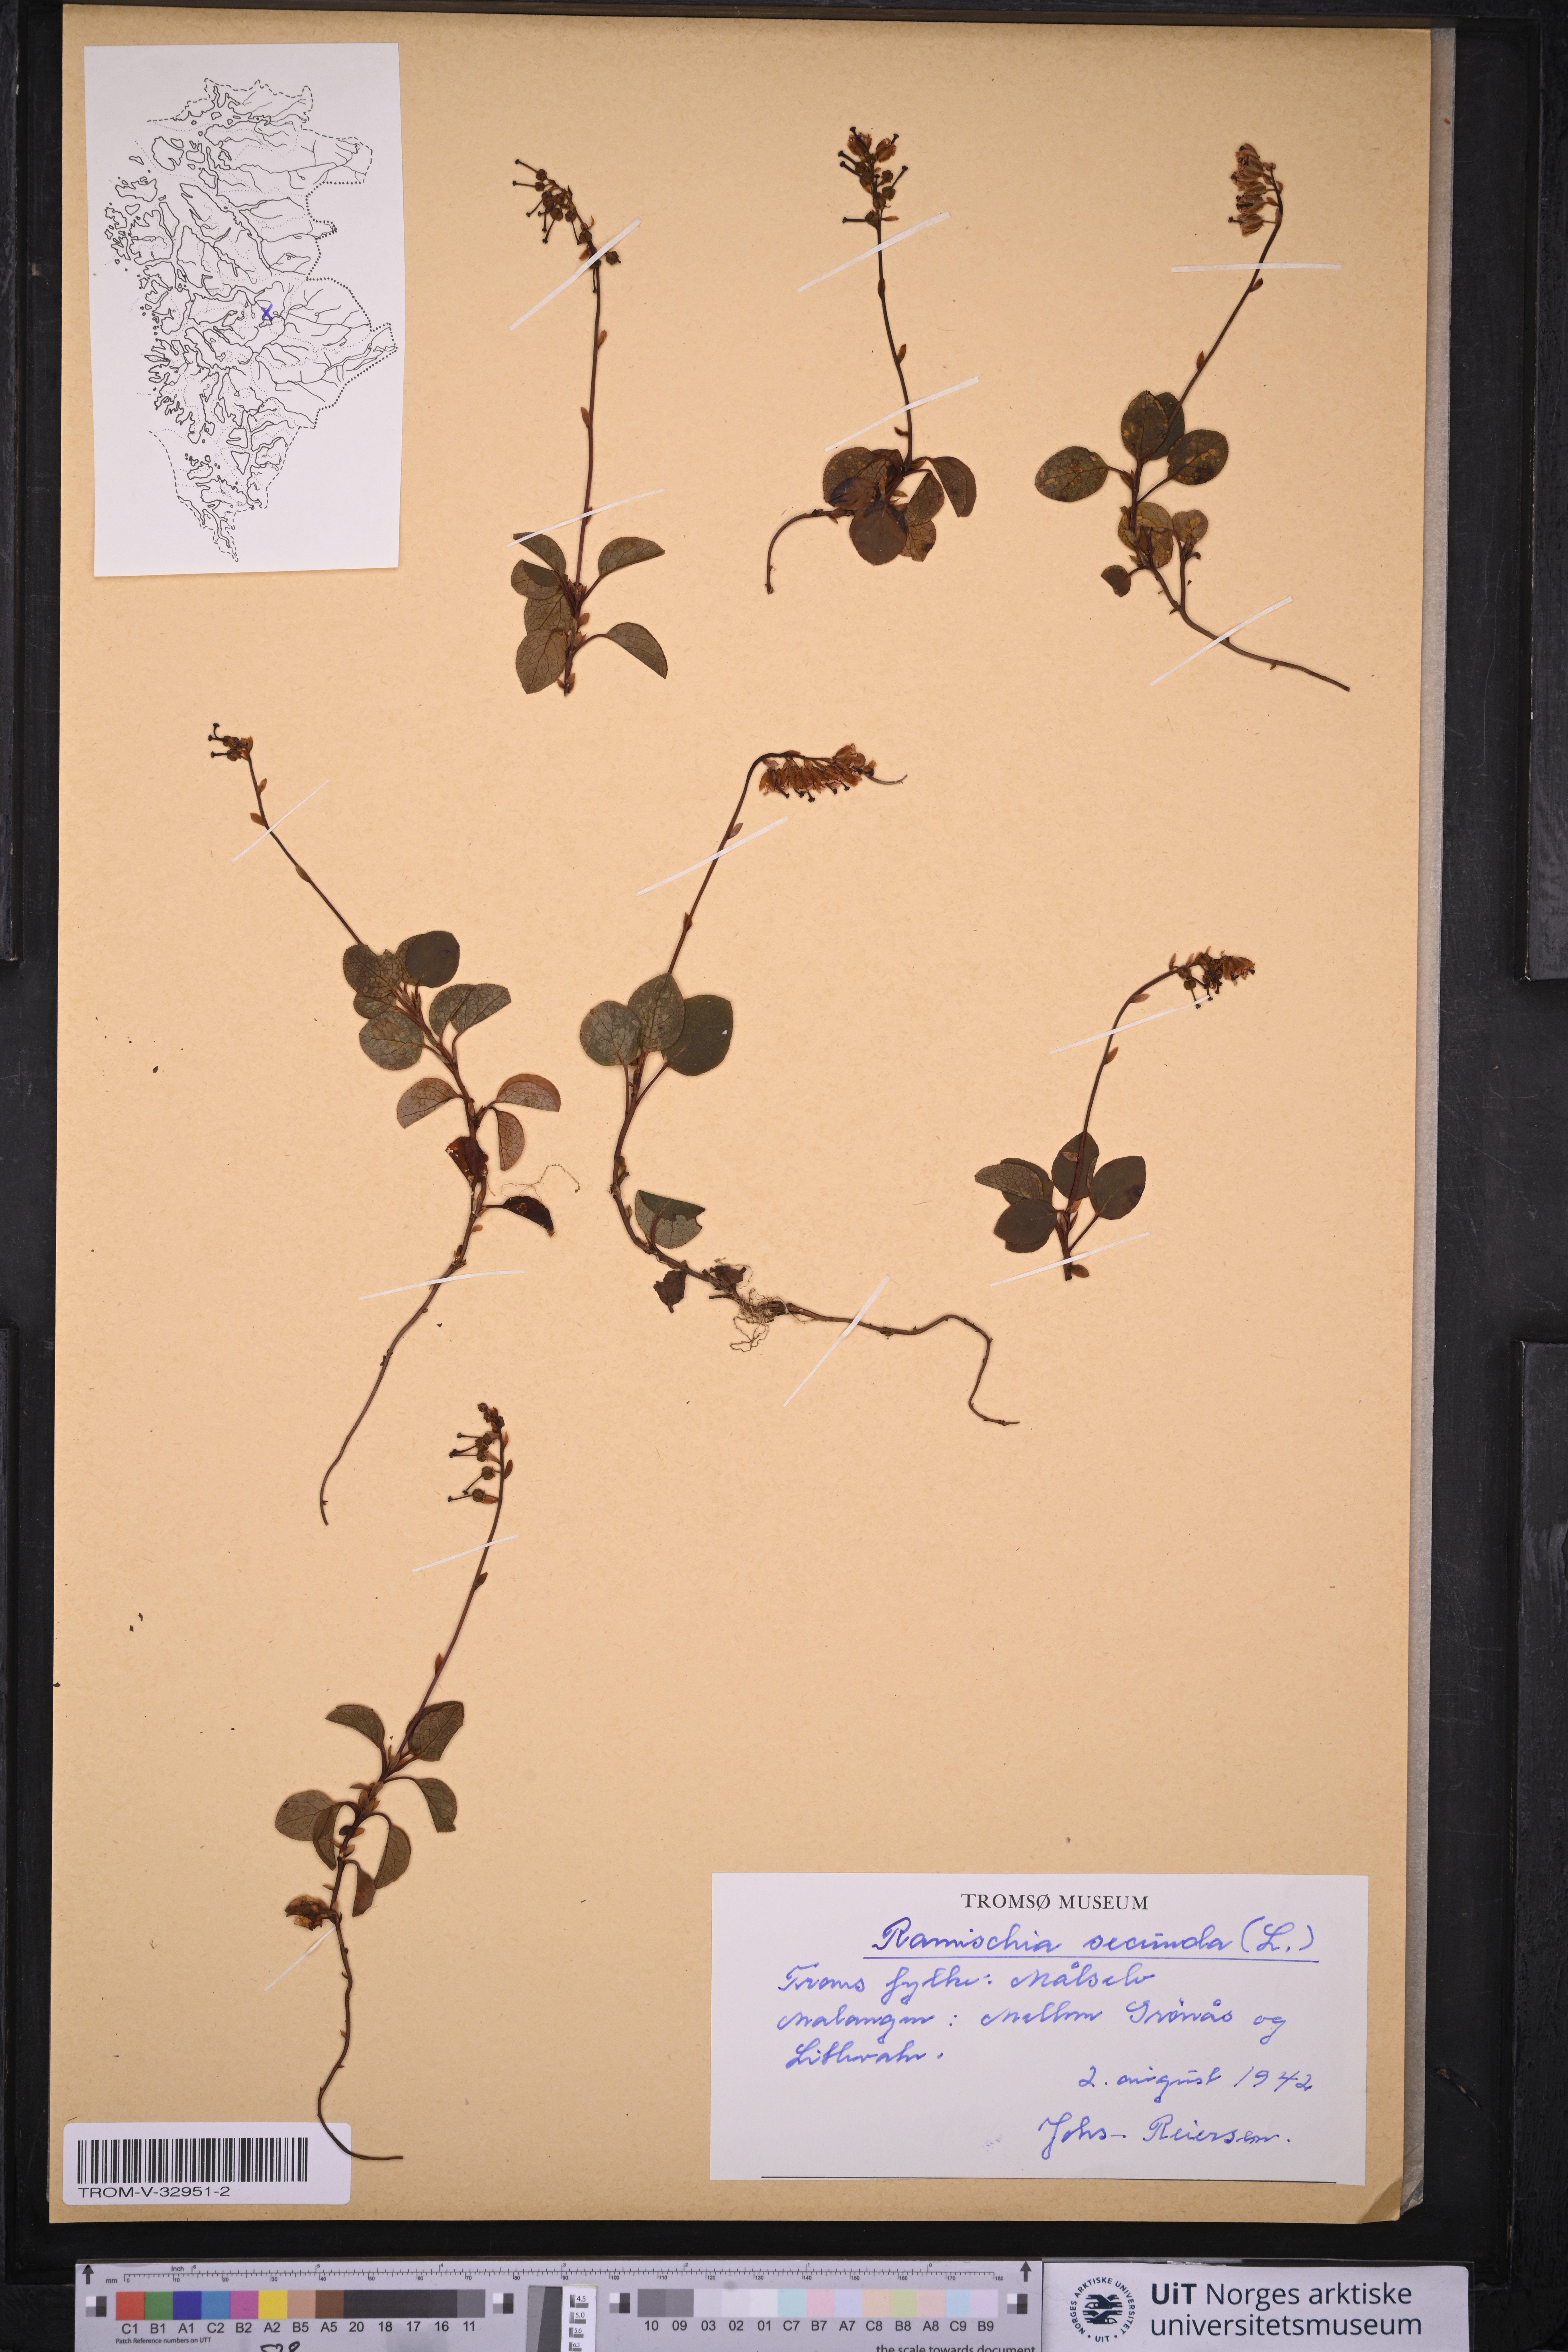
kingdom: Plantae
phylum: Tracheophyta
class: Magnoliopsida
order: Ericales
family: Ericaceae
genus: Orthilia
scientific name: Orthilia secunda
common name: One-sided orthilia
